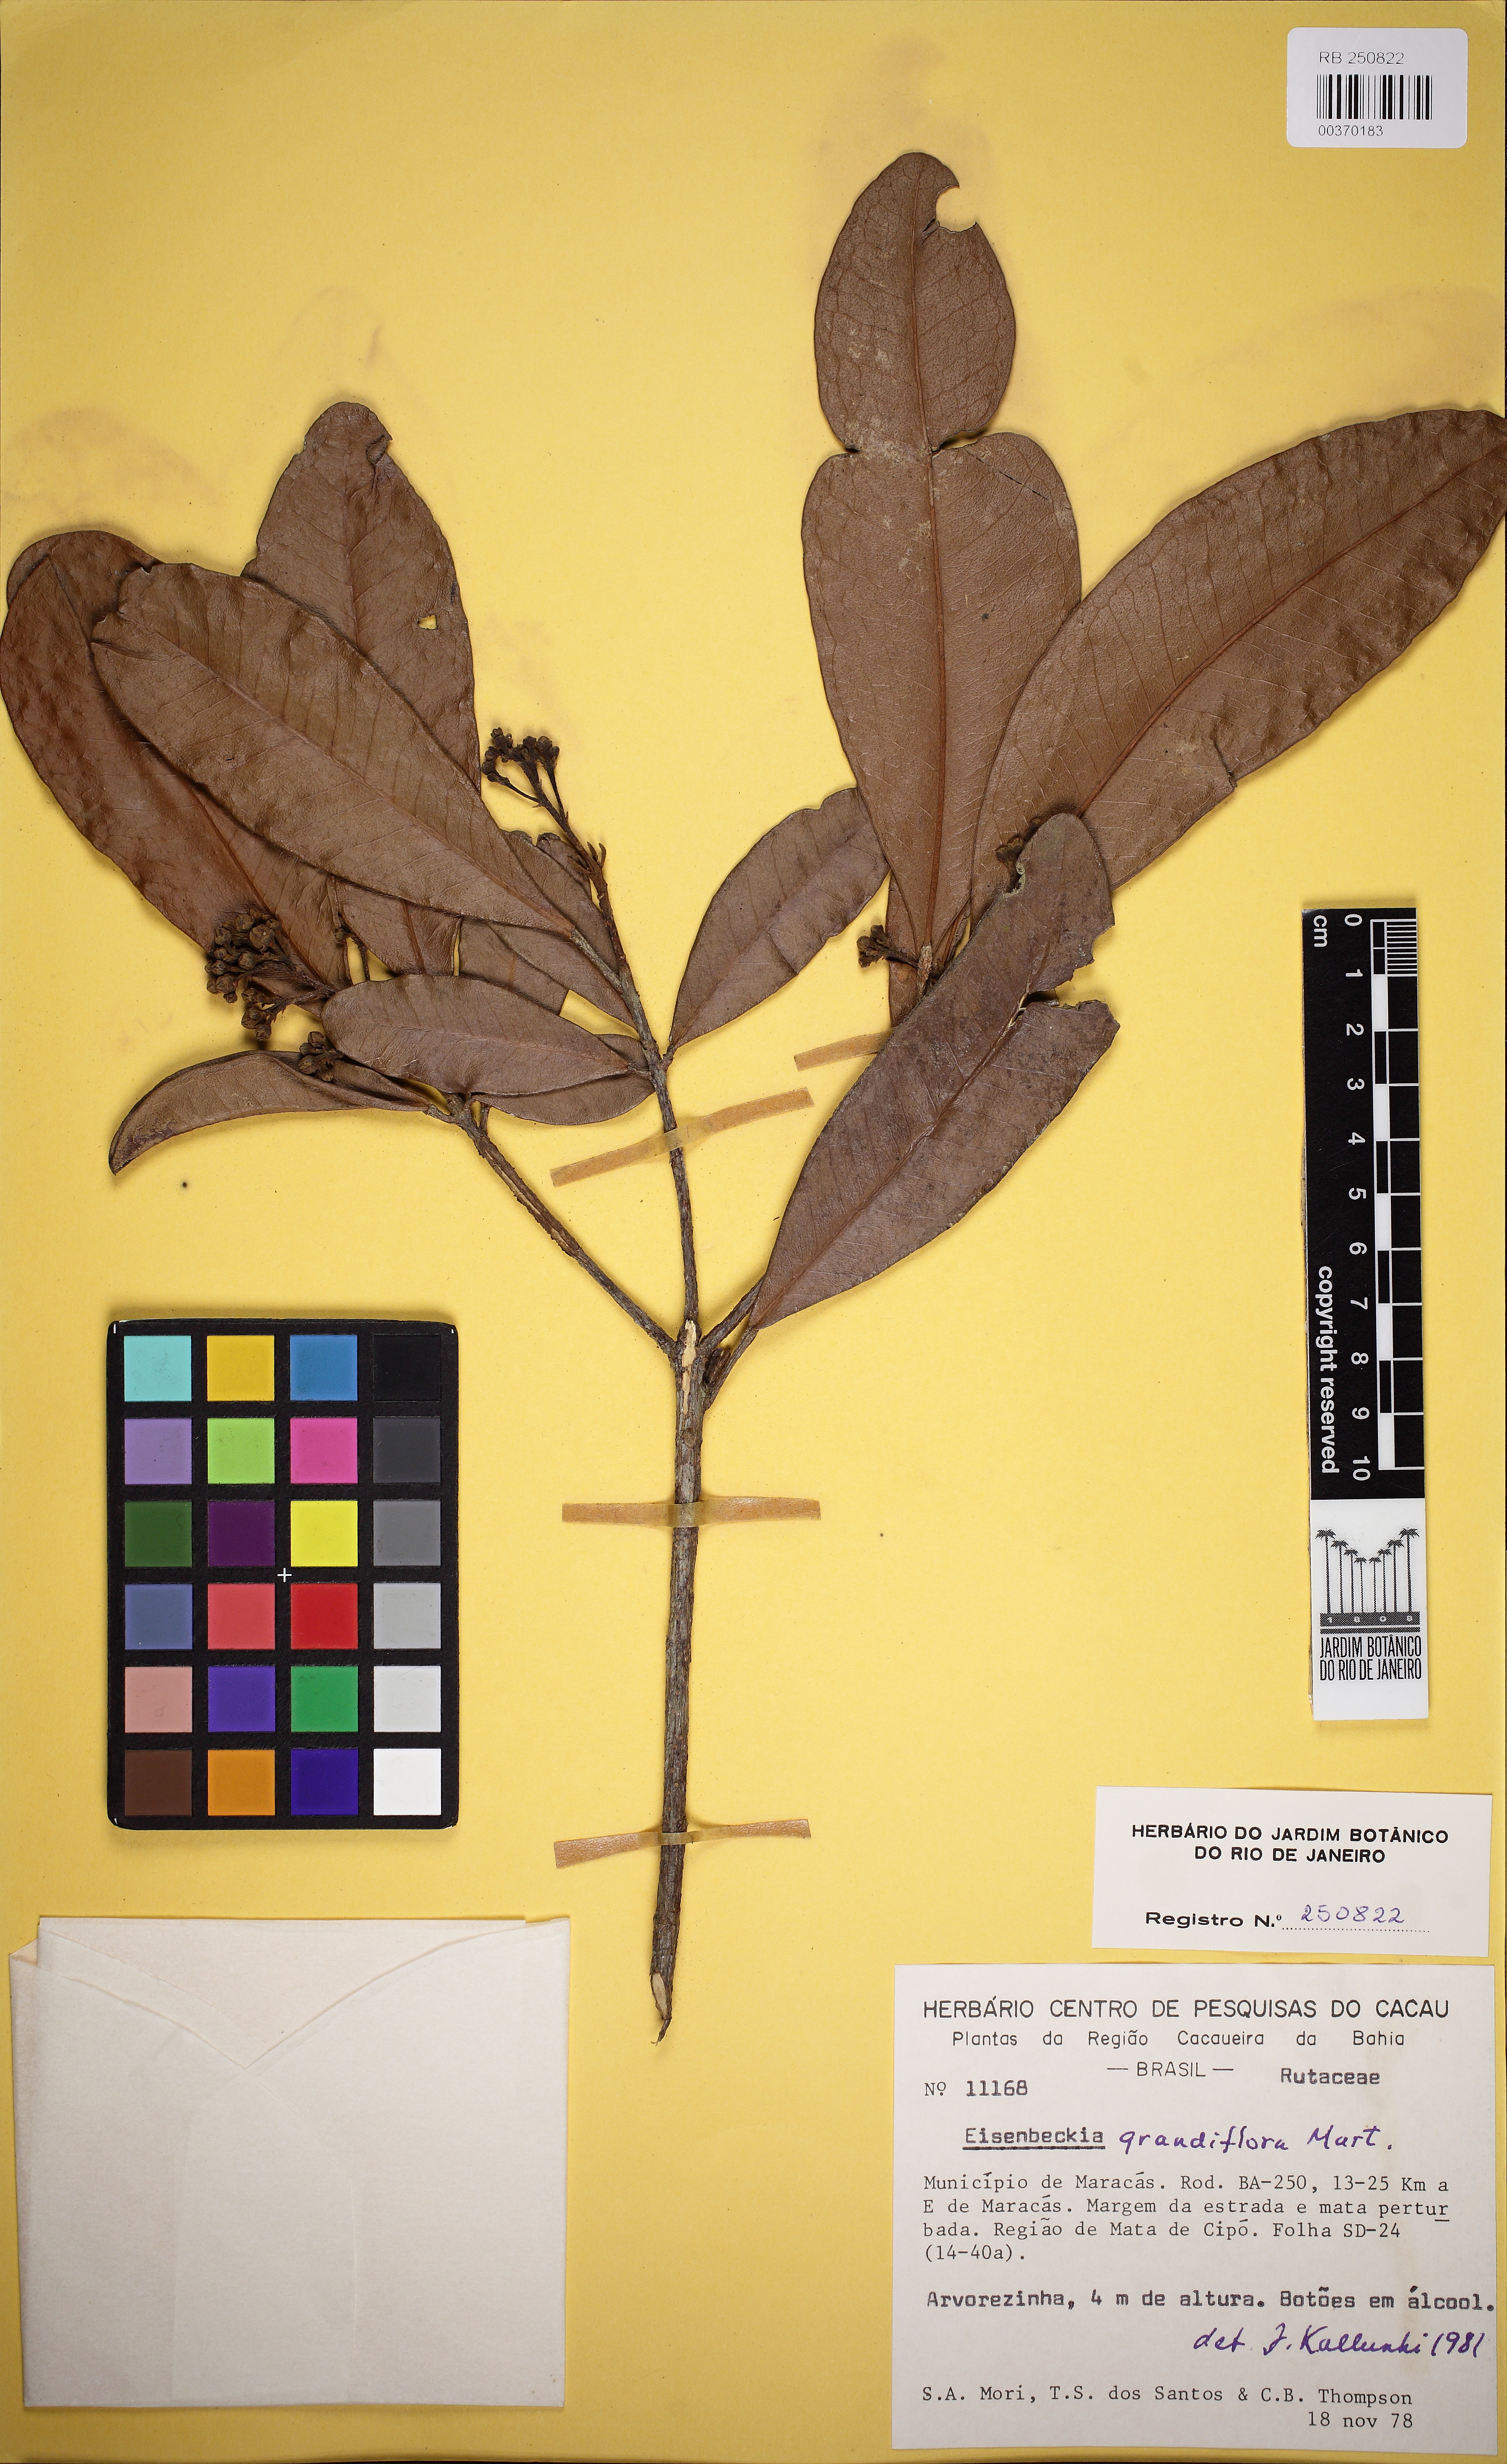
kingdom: Plantae
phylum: Tracheophyta
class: Magnoliopsida
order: Sapindales
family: Rutaceae
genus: Esenbeckia
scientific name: Esenbeckia grandiflora
